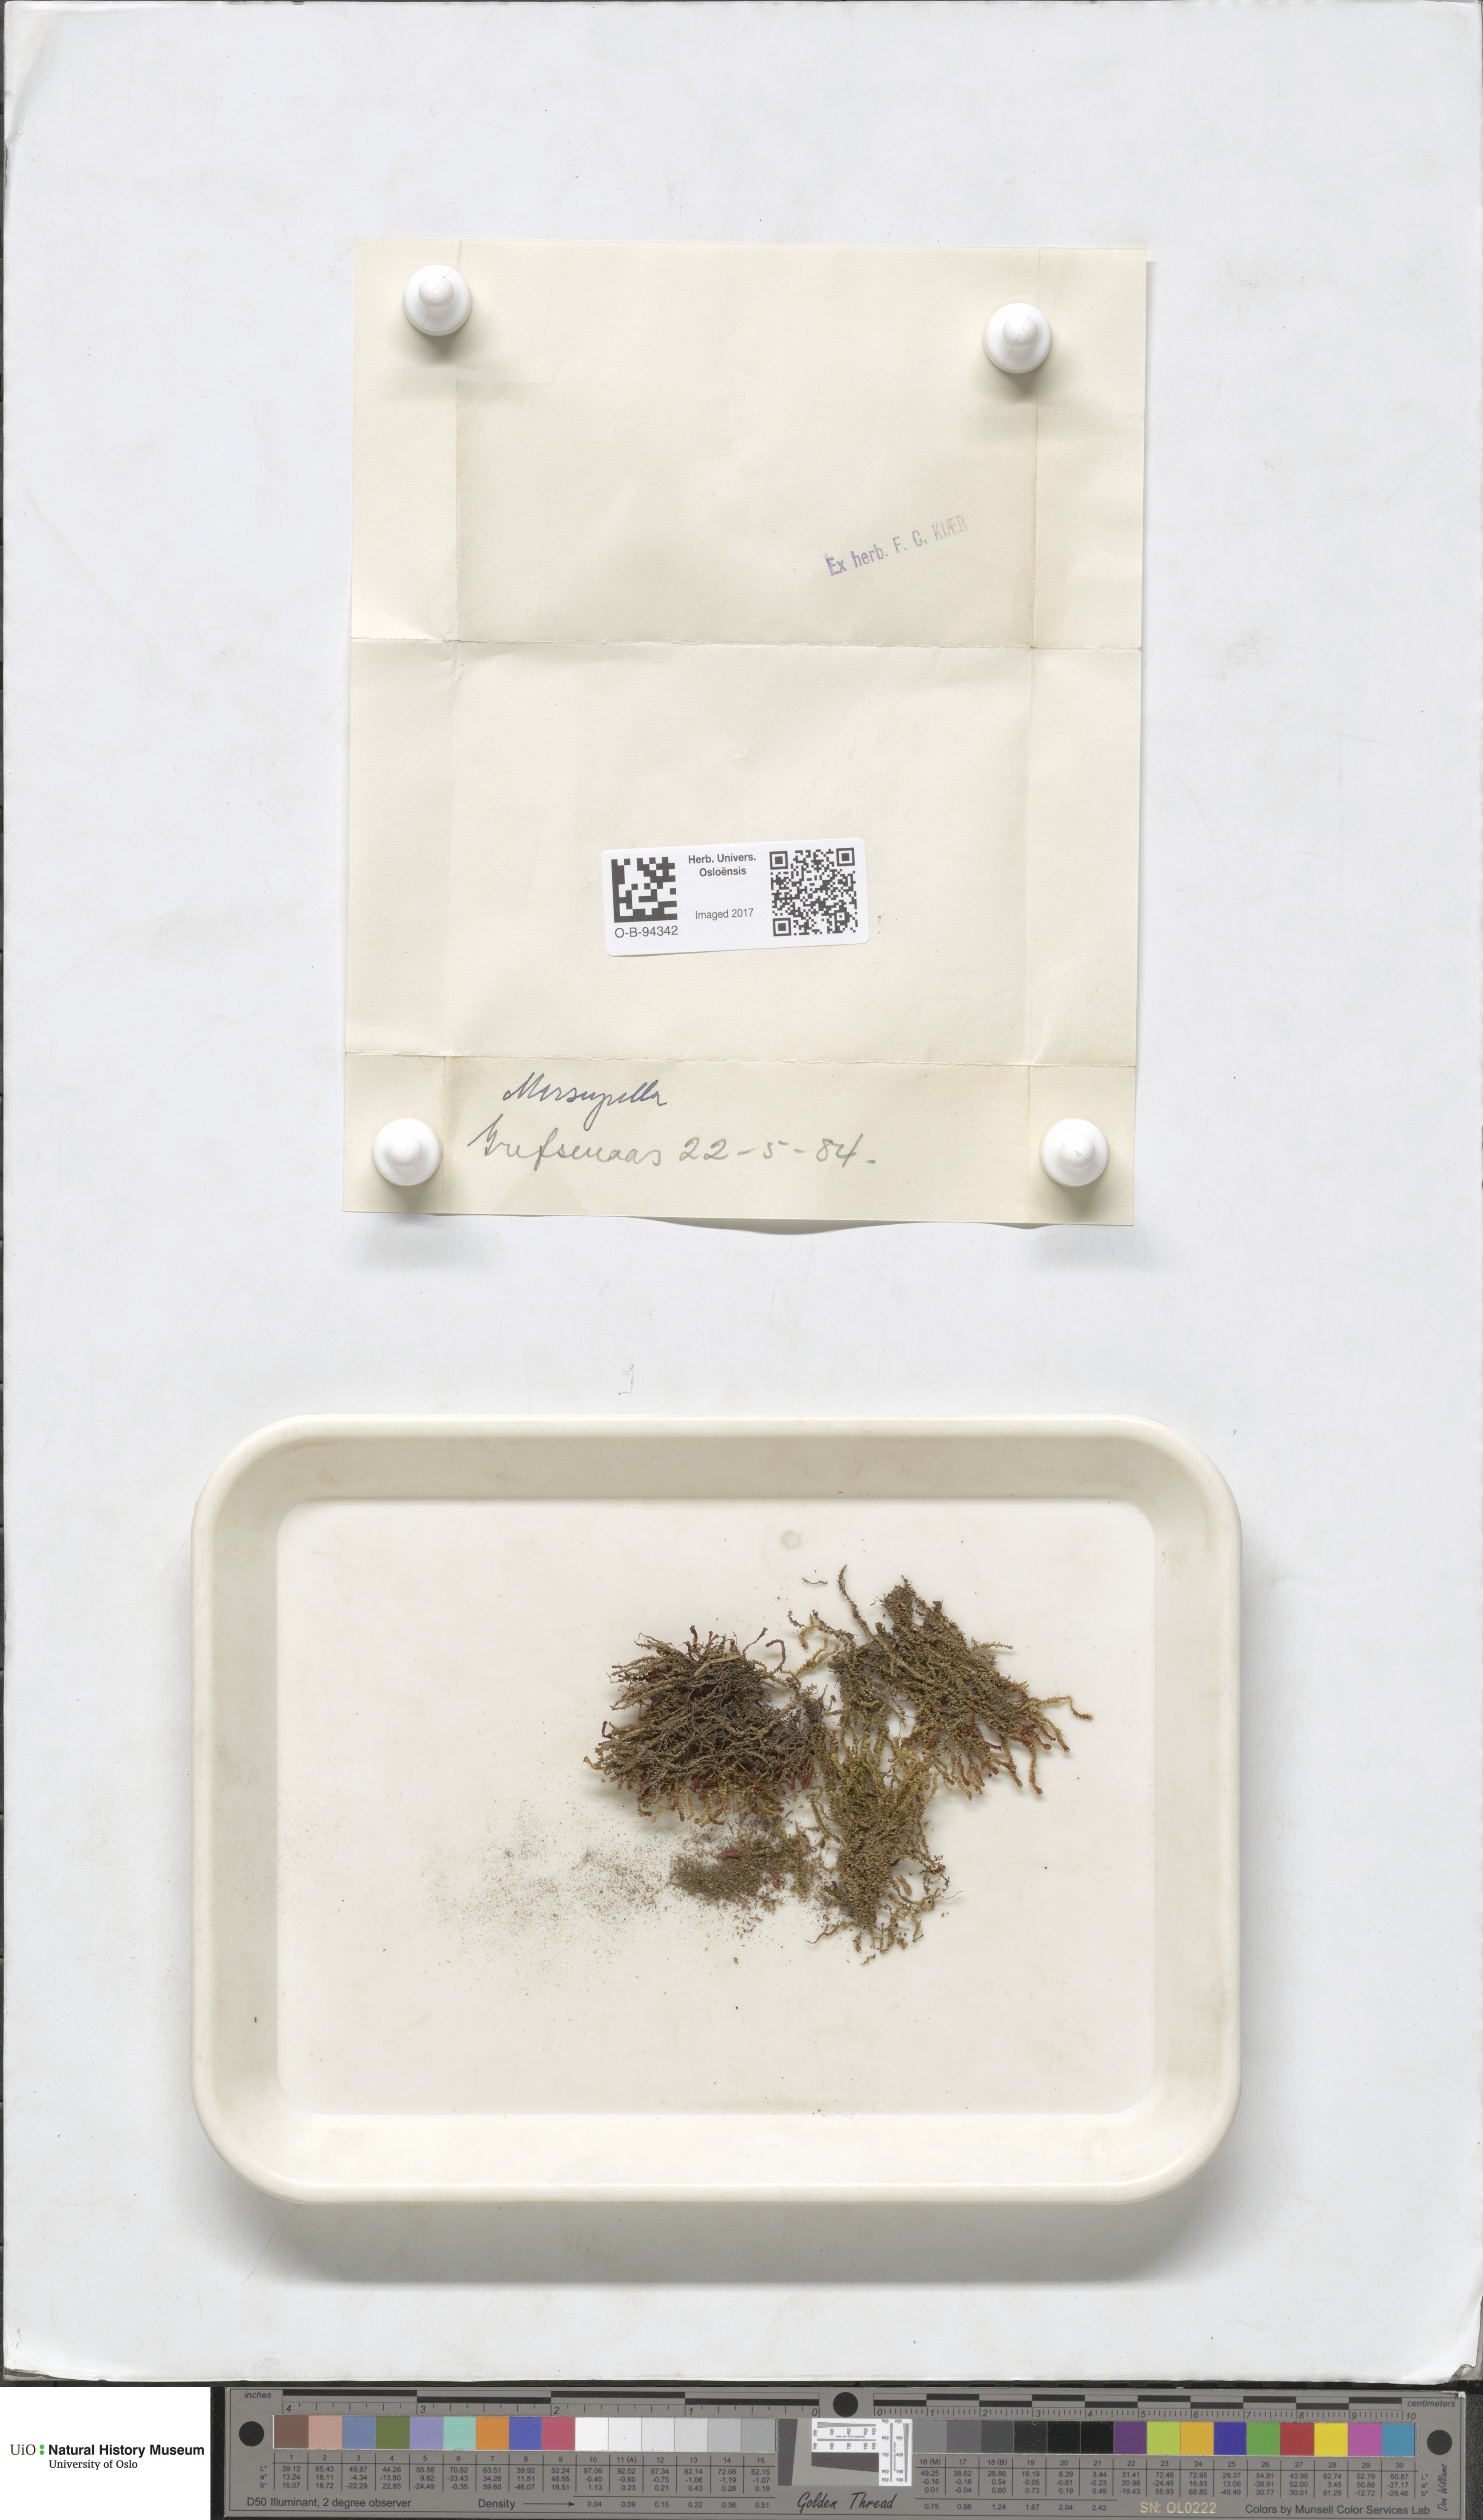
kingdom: Plantae
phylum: Marchantiophyta
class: Jungermanniopsida
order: Jungermanniales
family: Gymnomitriaceae
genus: Marsupella
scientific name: Marsupella
